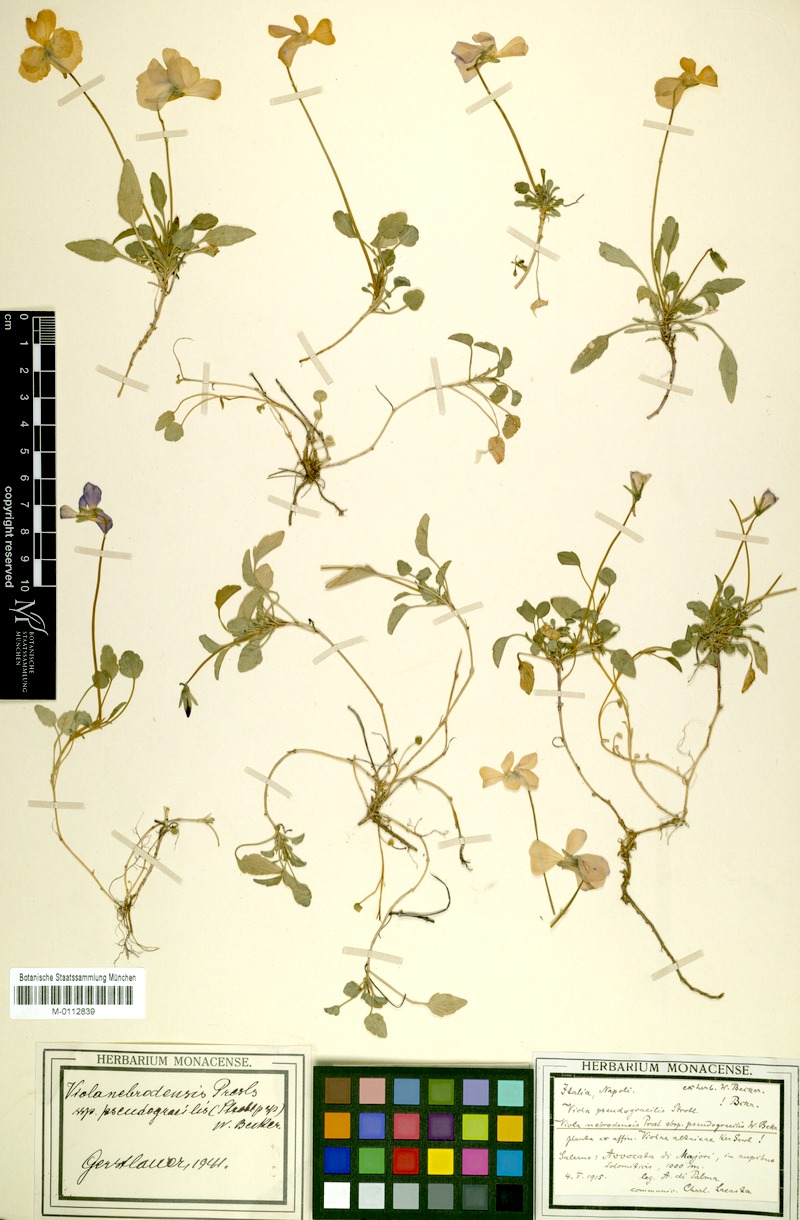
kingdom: Plantae
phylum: Tracheophyta
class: Magnoliopsida
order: Malpighiales
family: Violaceae
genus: Viola
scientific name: Viola pseudogracilis
